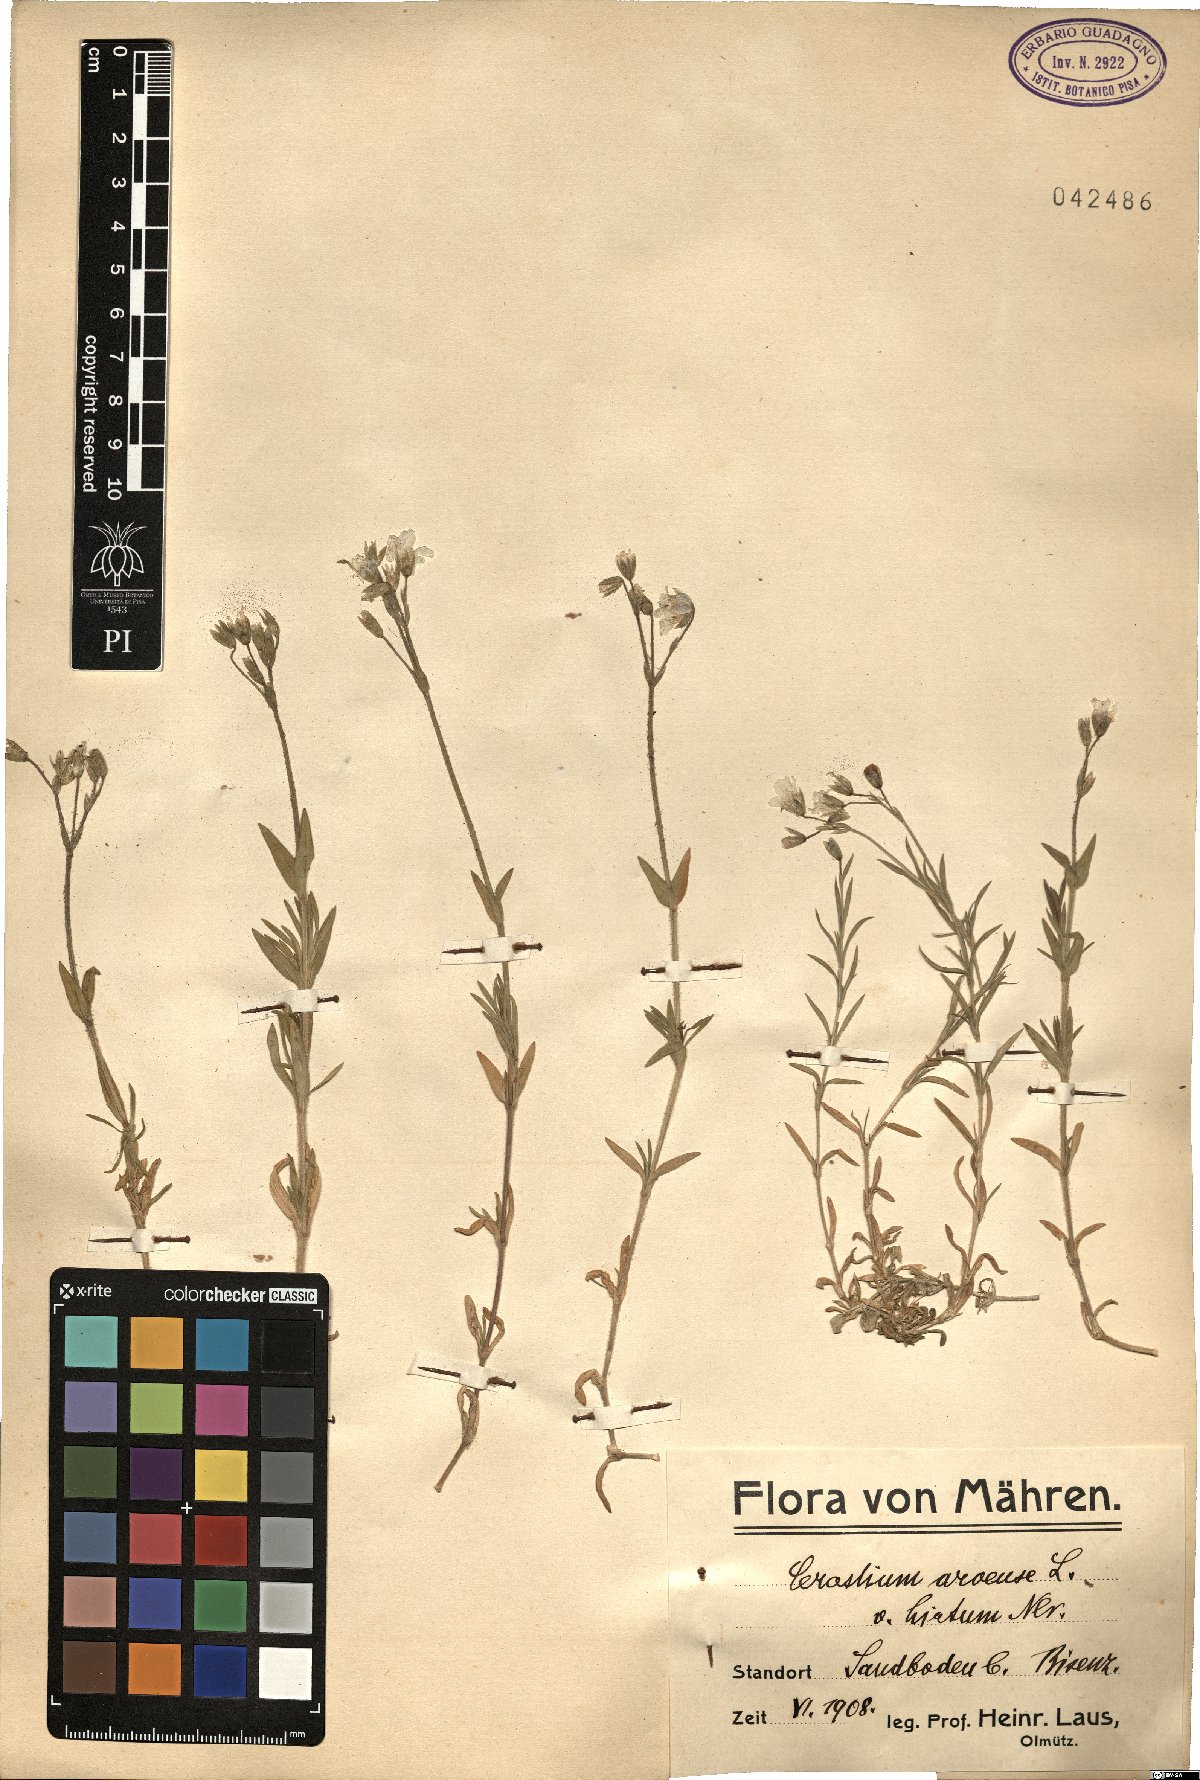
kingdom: Plantae
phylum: Tracheophyta
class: Magnoliopsida
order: Caryophyllales
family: Caryophyllaceae
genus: Cerastium
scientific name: Cerastium arvense
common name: Field mouse-ear
